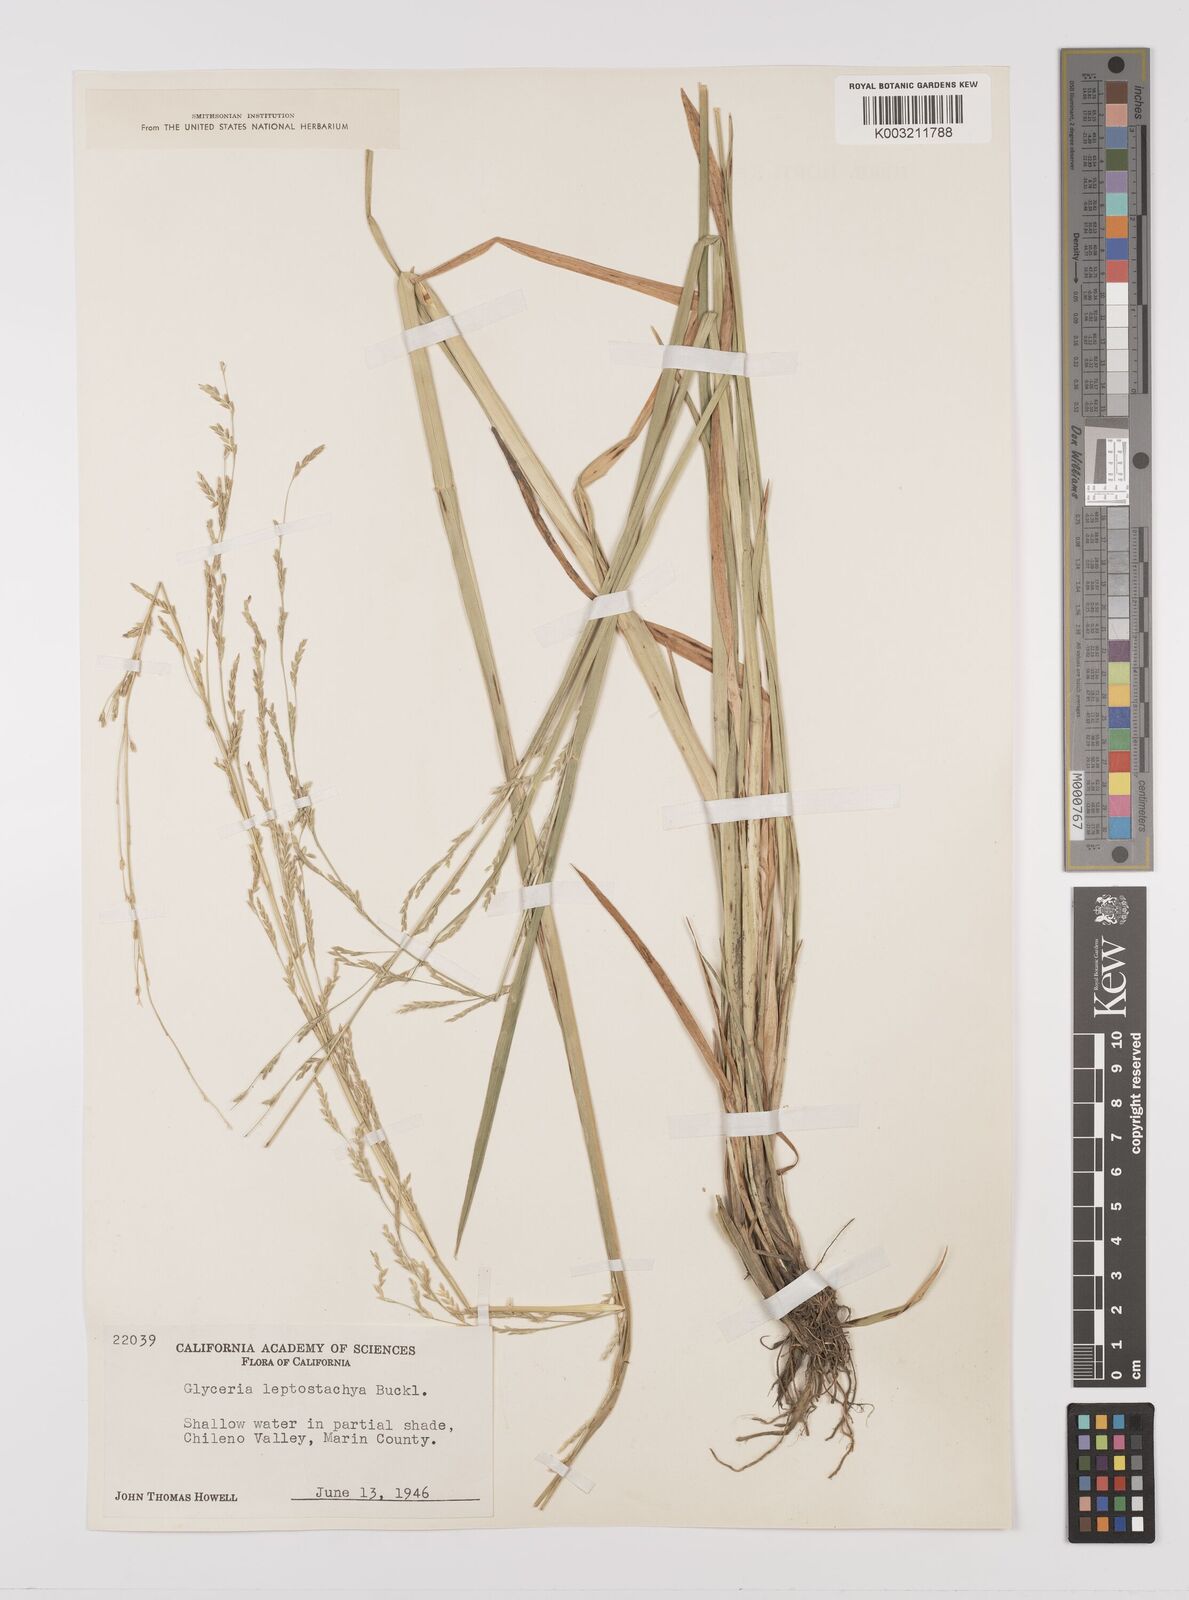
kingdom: Plantae
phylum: Tracheophyta
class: Liliopsida
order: Poales
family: Poaceae
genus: Glyceria
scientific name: Glyceria leptostachya
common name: Davy's mannagrass
